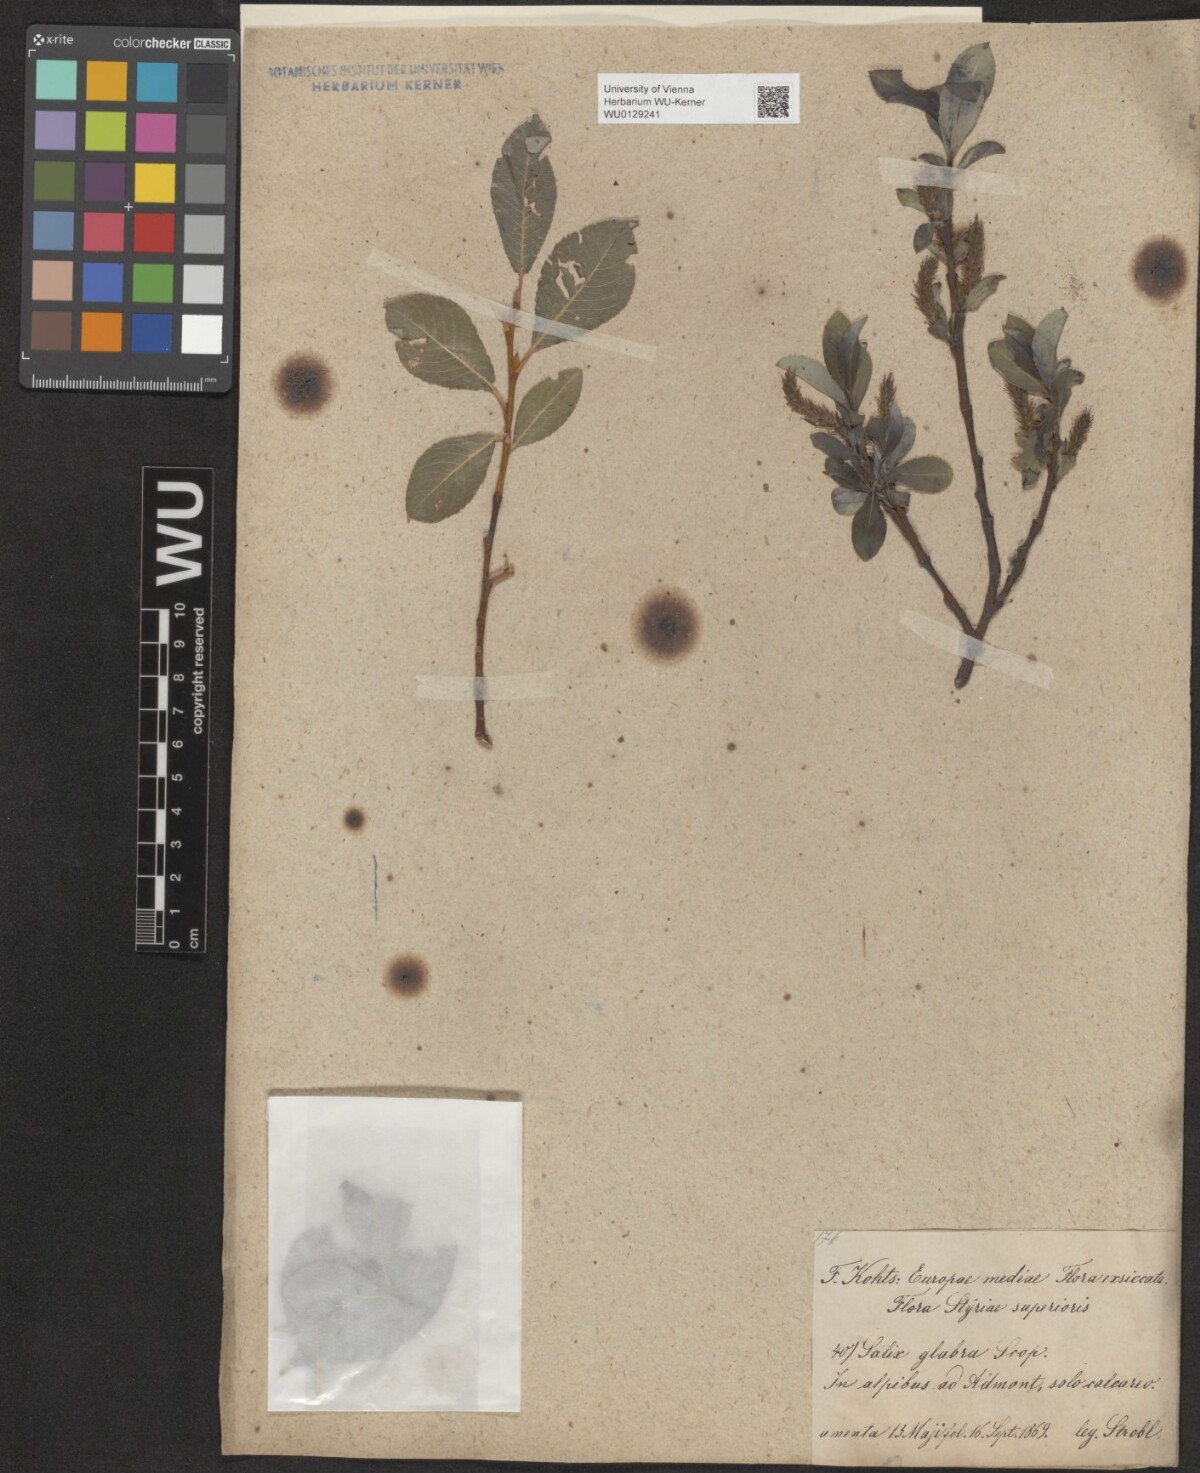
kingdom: Plantae
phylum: Tracheophyta
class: Magnoliopsida
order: Malpighiales
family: Salicaceae
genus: Salix
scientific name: Salix glabra
